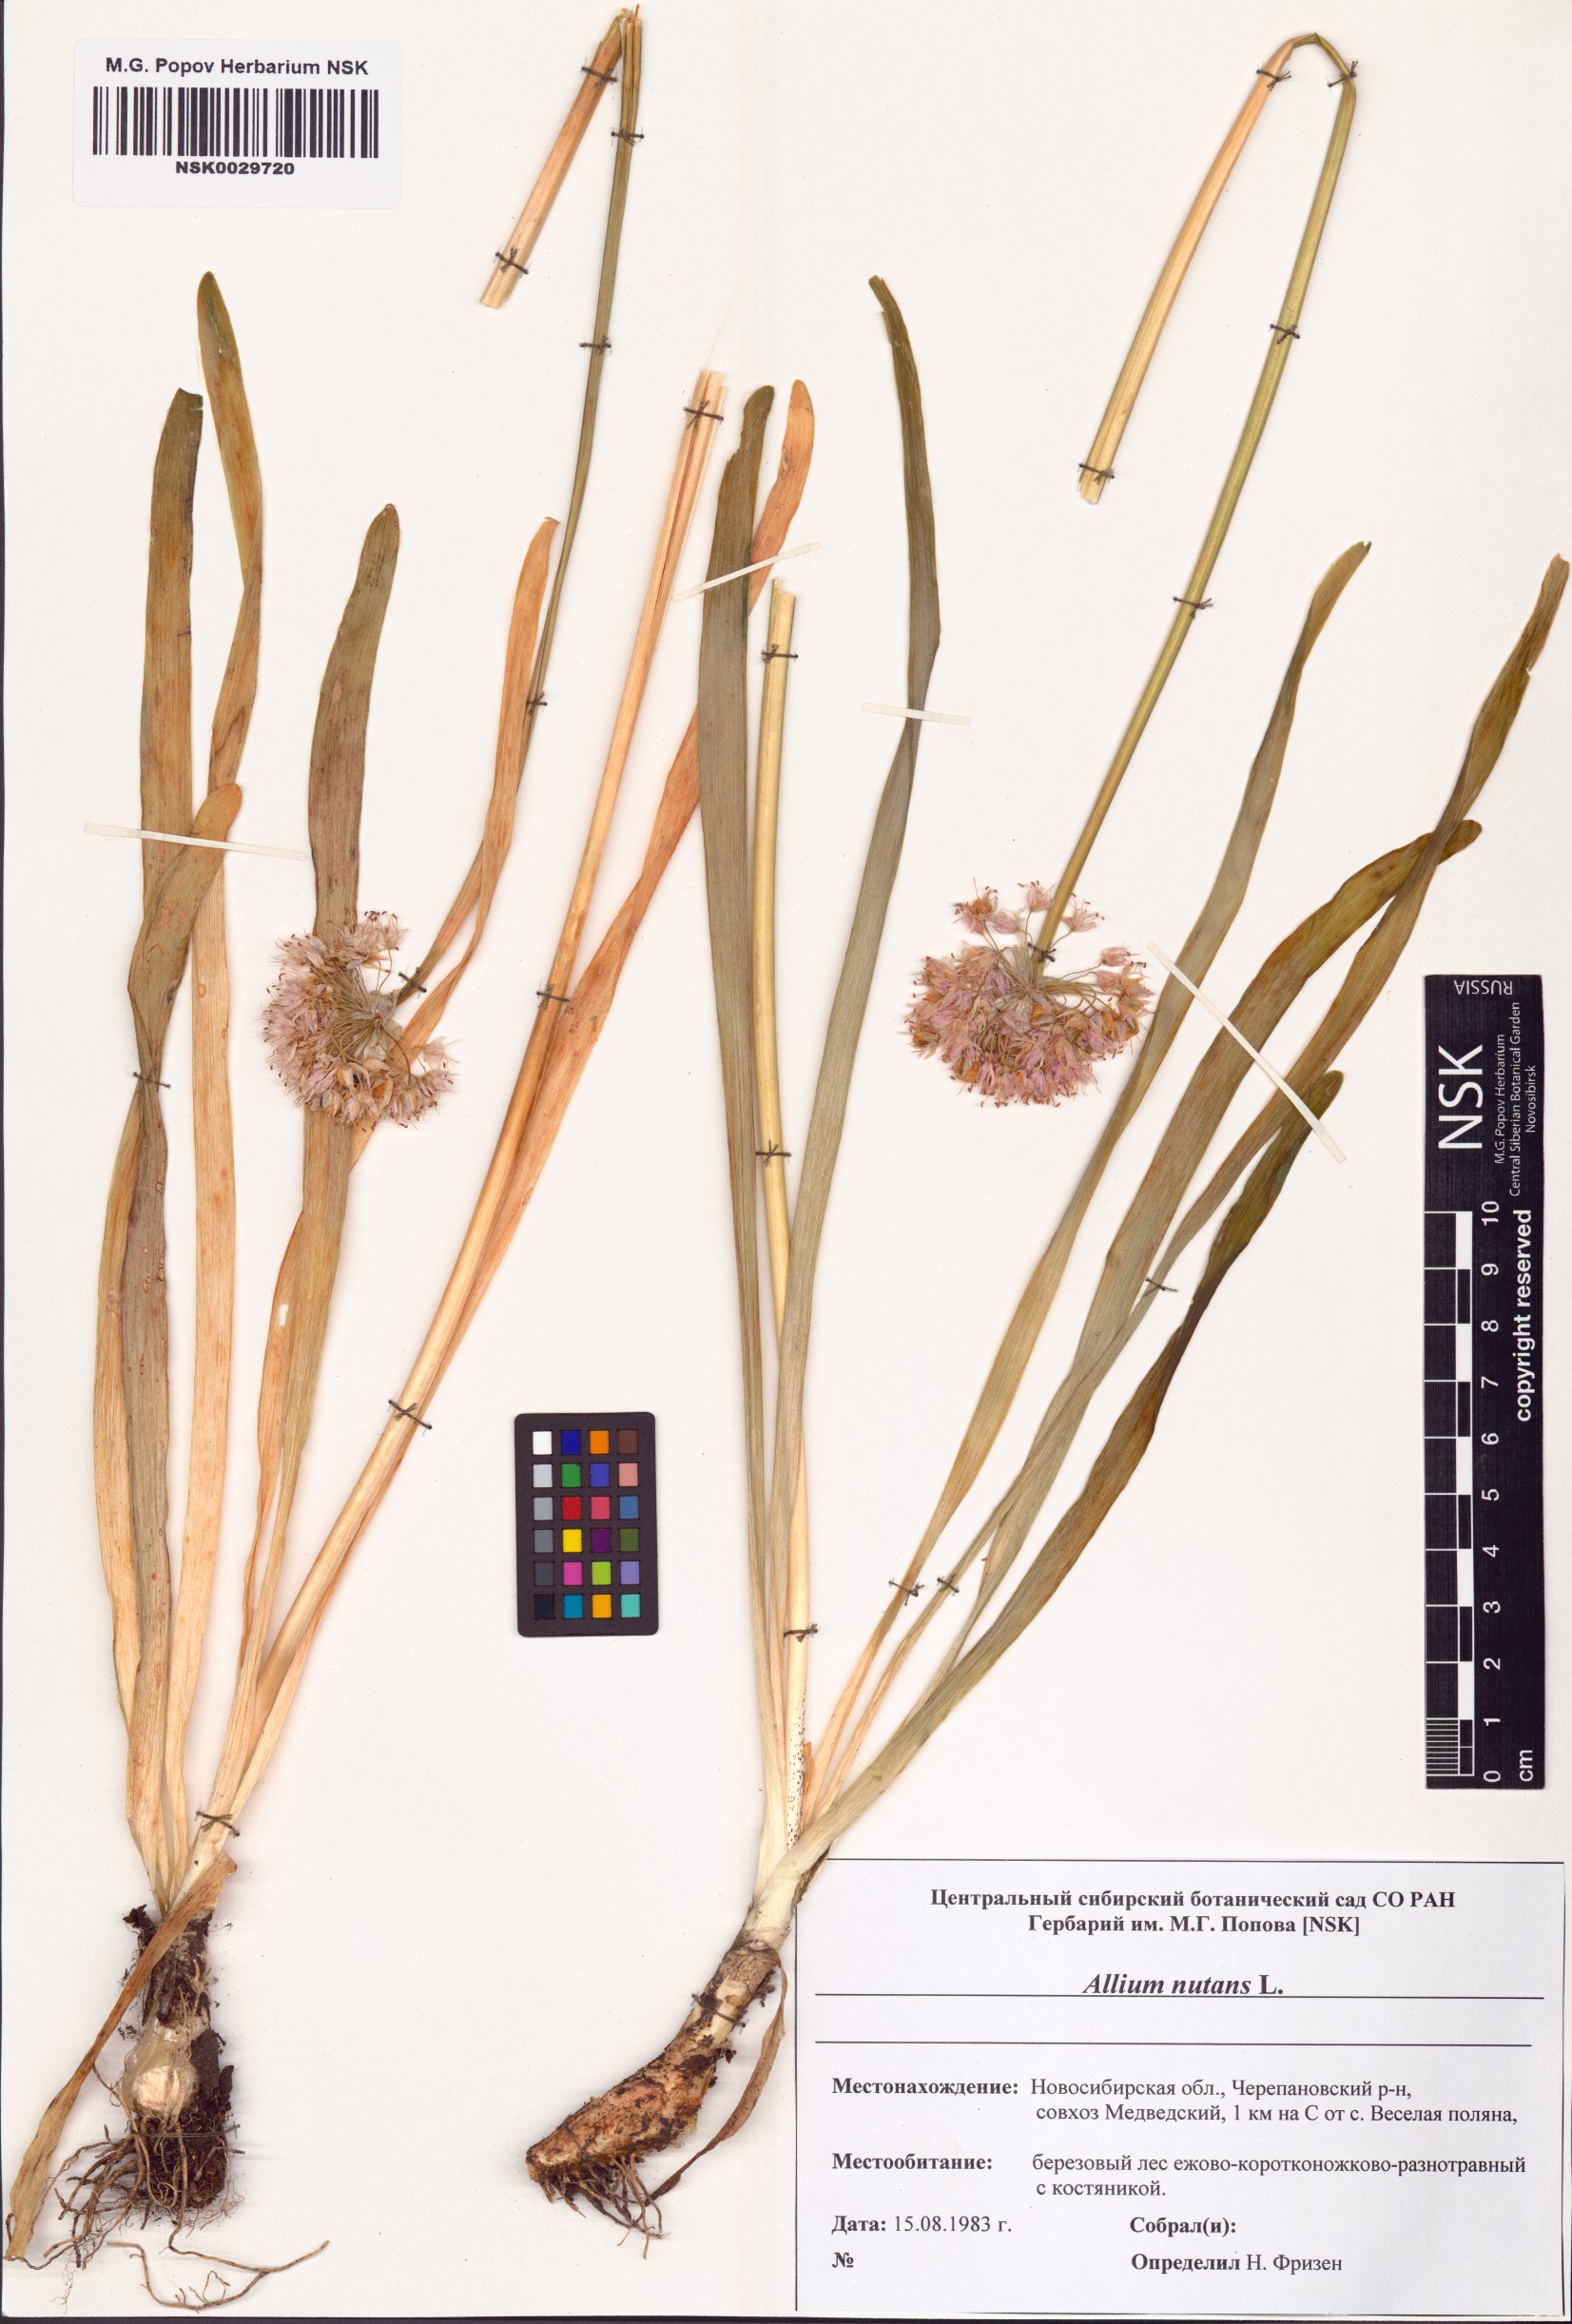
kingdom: Plantae
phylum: Tracheophyta
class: Liliopsida
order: Asparagales
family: Amaryllidaceae
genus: Allium
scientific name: Allium nutans
